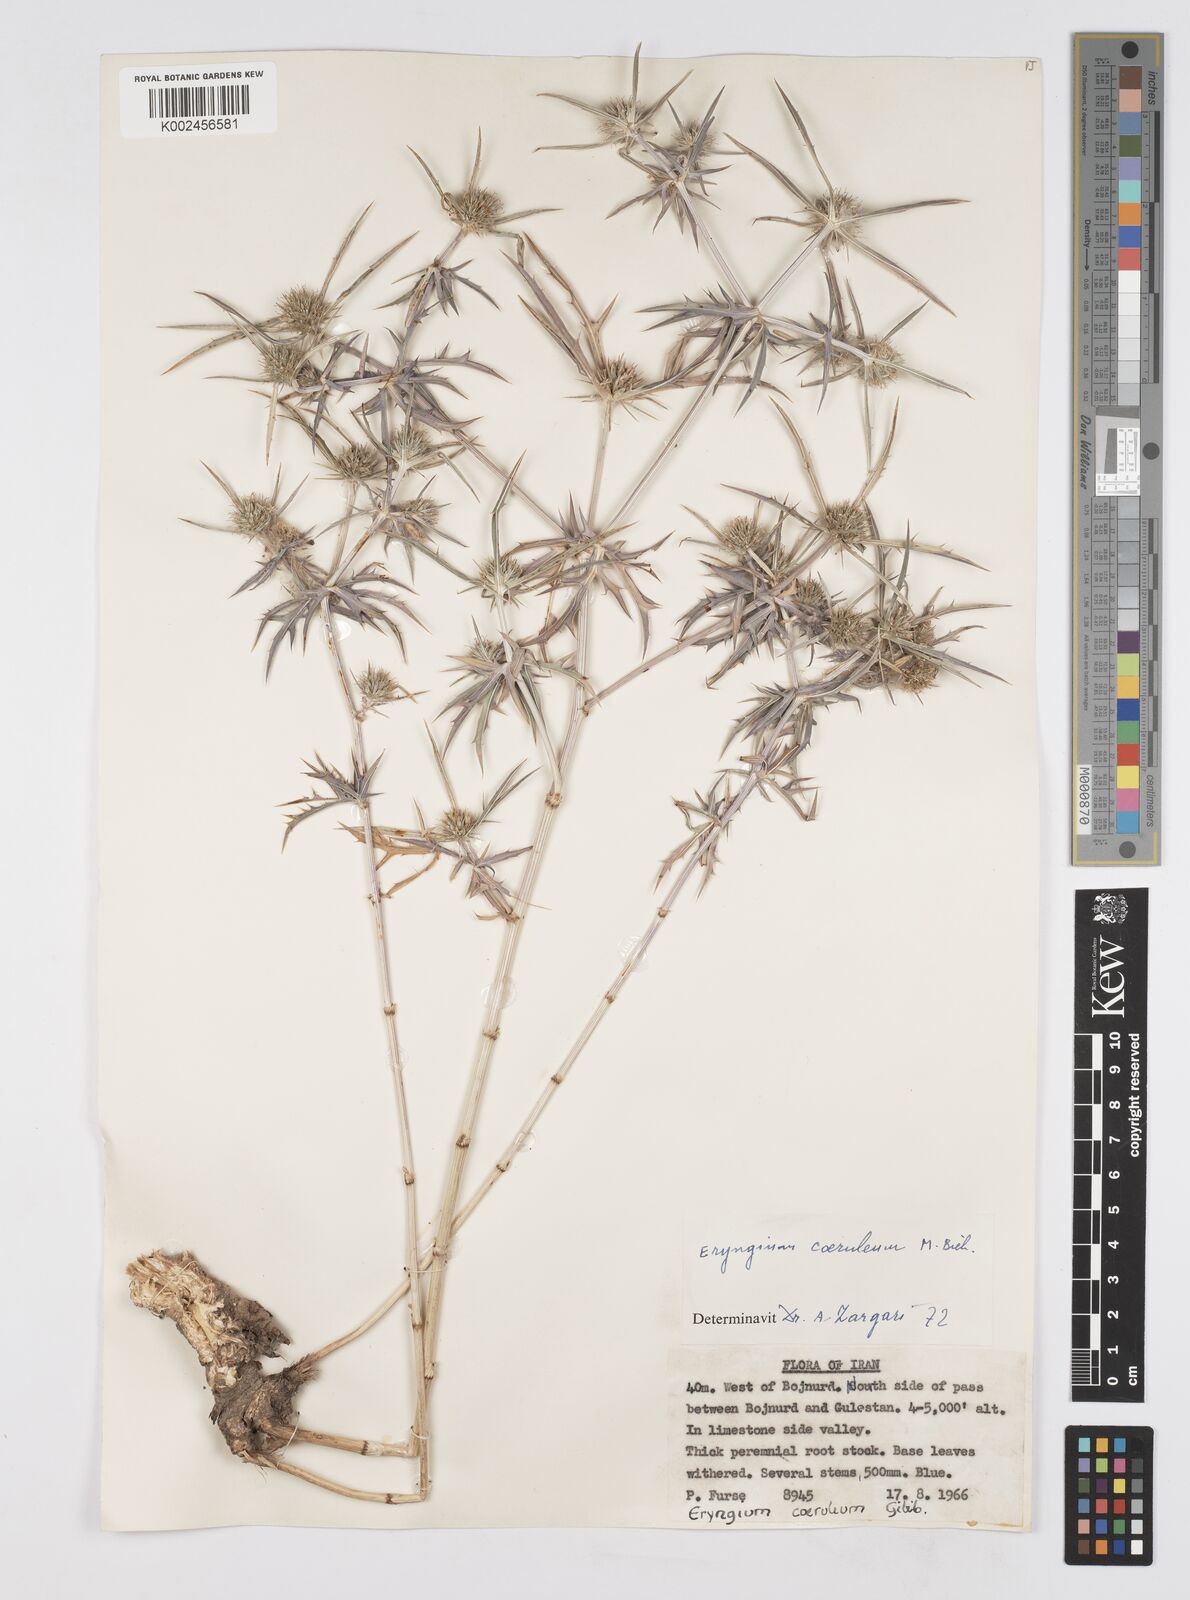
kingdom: Plantae
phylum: Tracheophyta
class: Magnoliopsida
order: Apiales
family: Apiaceae
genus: Eryngium
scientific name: Eryngium caeruleum
